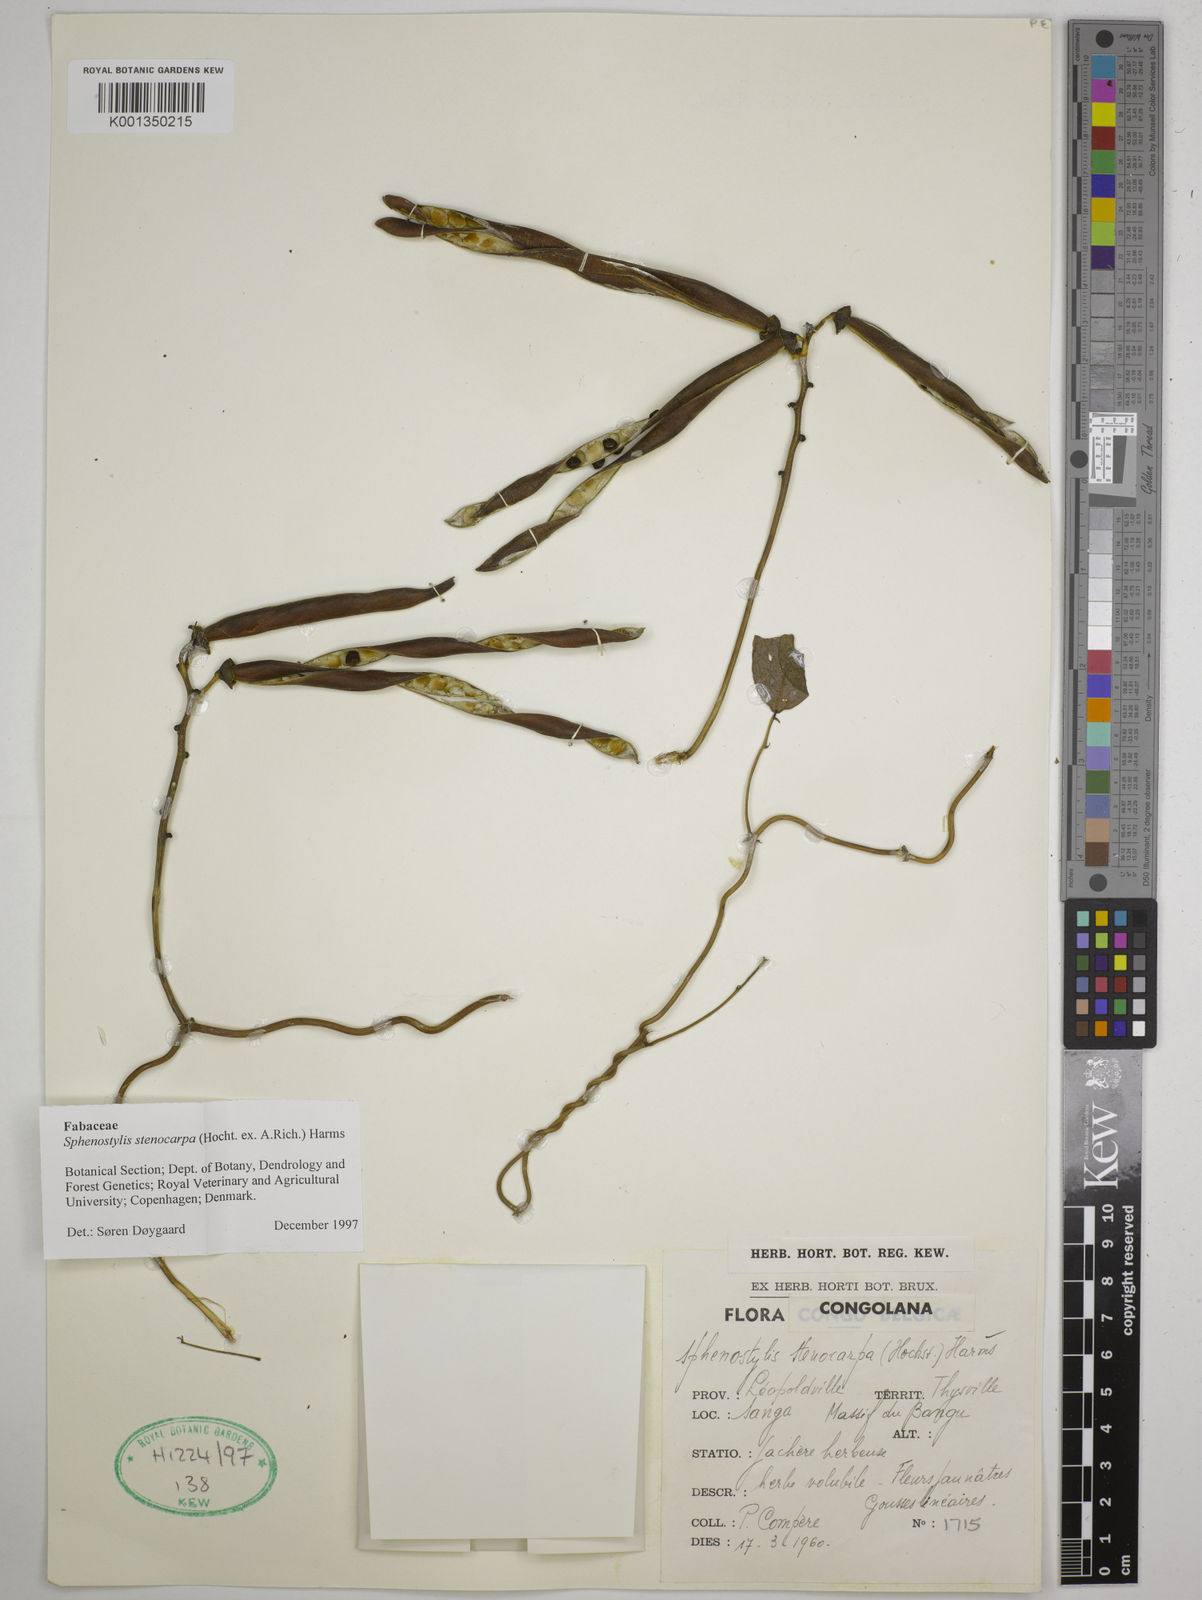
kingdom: Plantae
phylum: Tracheophyta
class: Magnoliopsida
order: Fabales
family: Fabaceae
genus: Sphenostylis
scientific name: Sphenostylis stenocarpa
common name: Yam-pea
